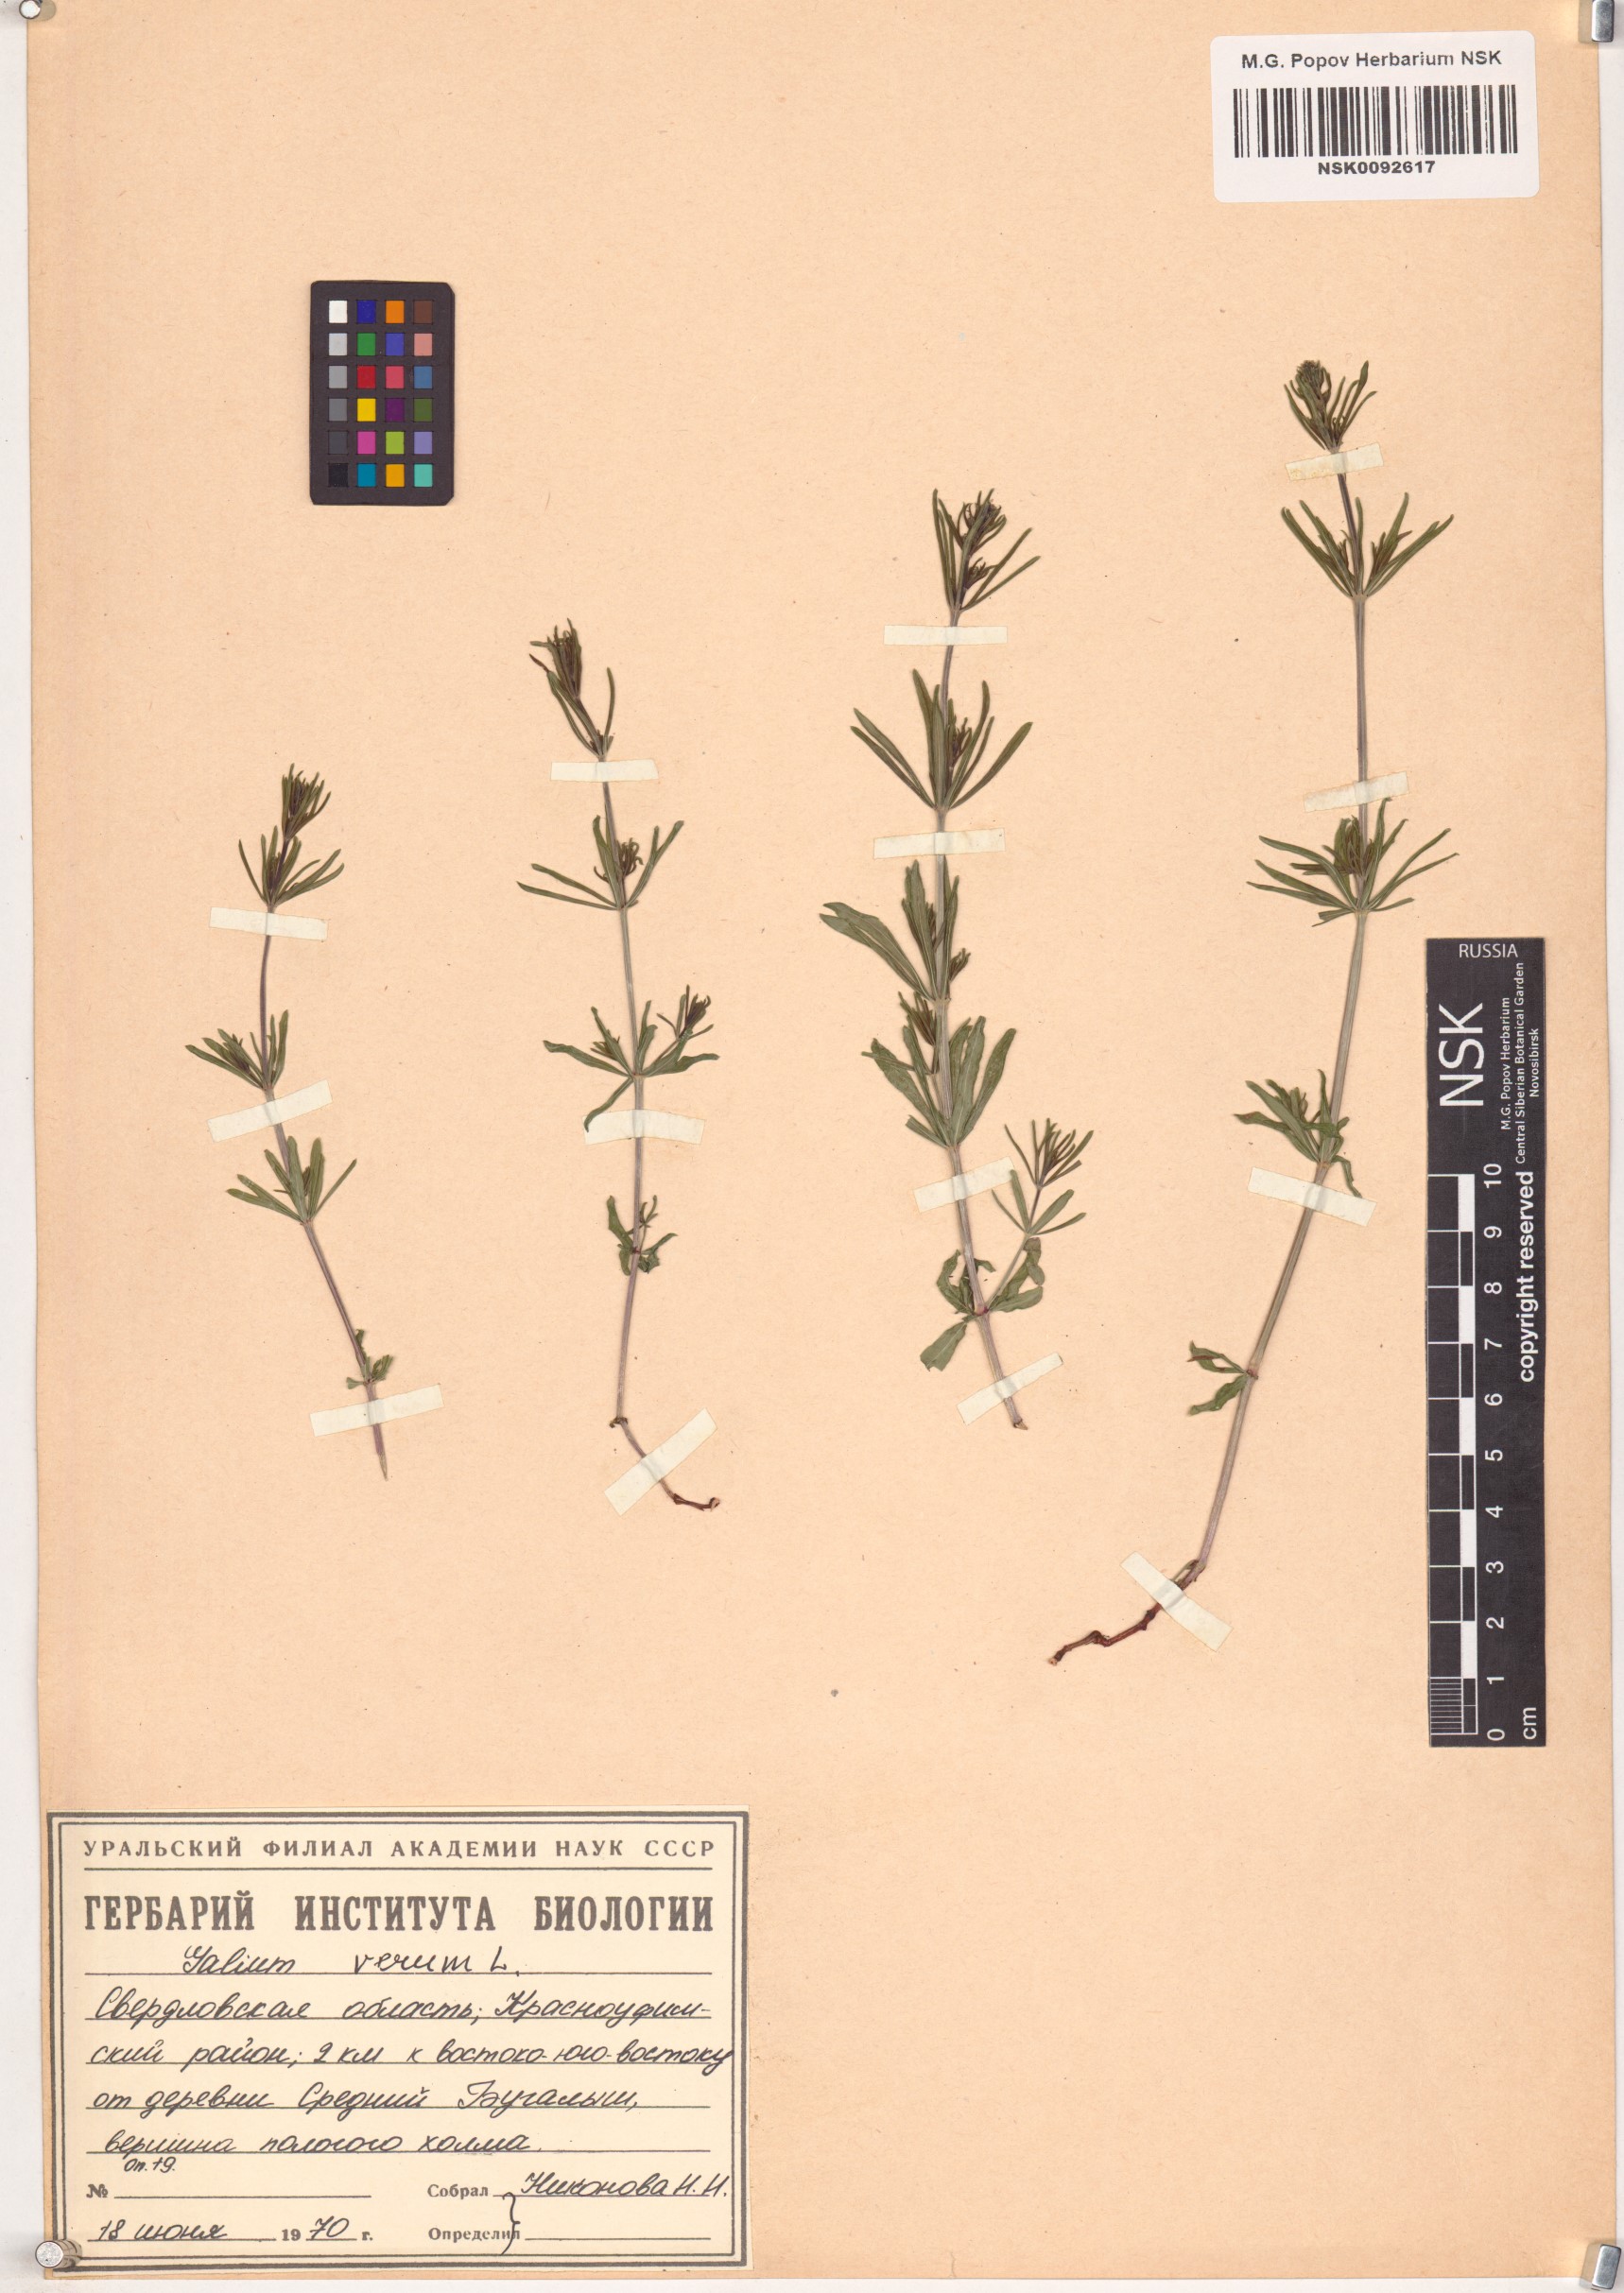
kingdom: Plantae
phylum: Tracheophyta
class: Magnoliopsida
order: Gentianales
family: Rubiaceae
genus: Galium
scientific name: Galium verum
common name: Lady's bedstraw
